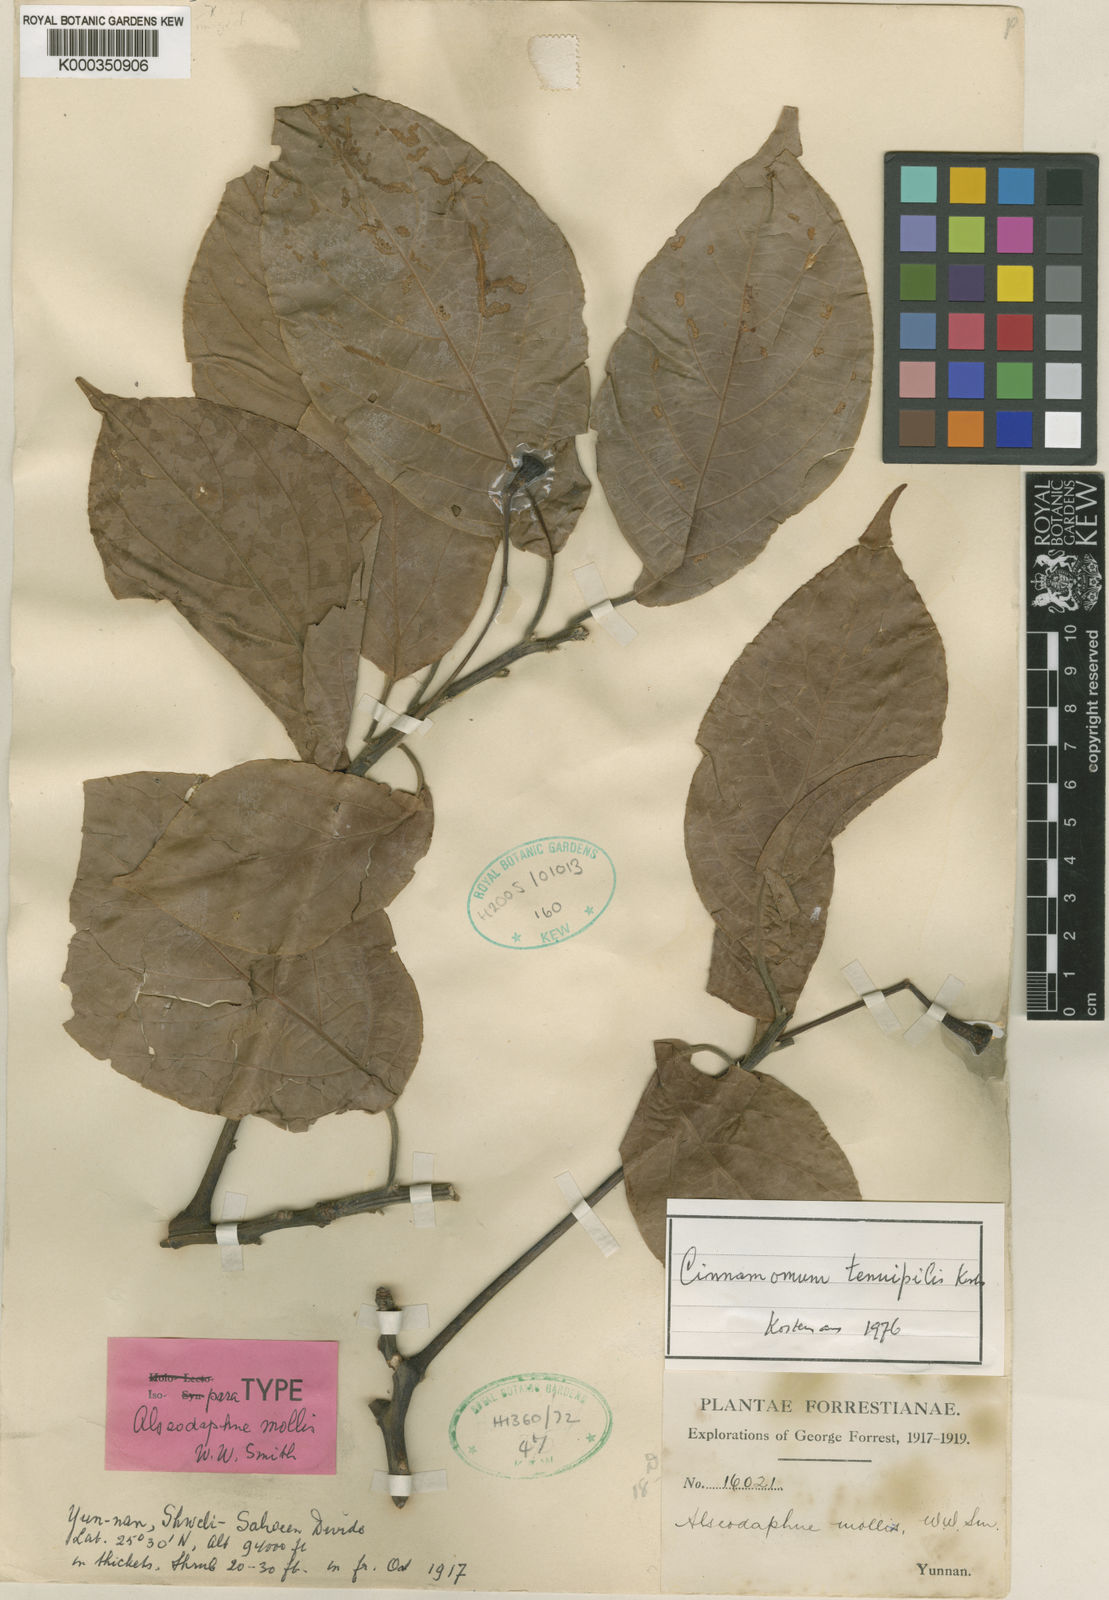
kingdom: Plantae
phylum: Tracheophyta
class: Magnoliopsida
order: Laurales
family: Lauraceae
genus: Cinnamomum
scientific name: Cinnamomum tenuipile
